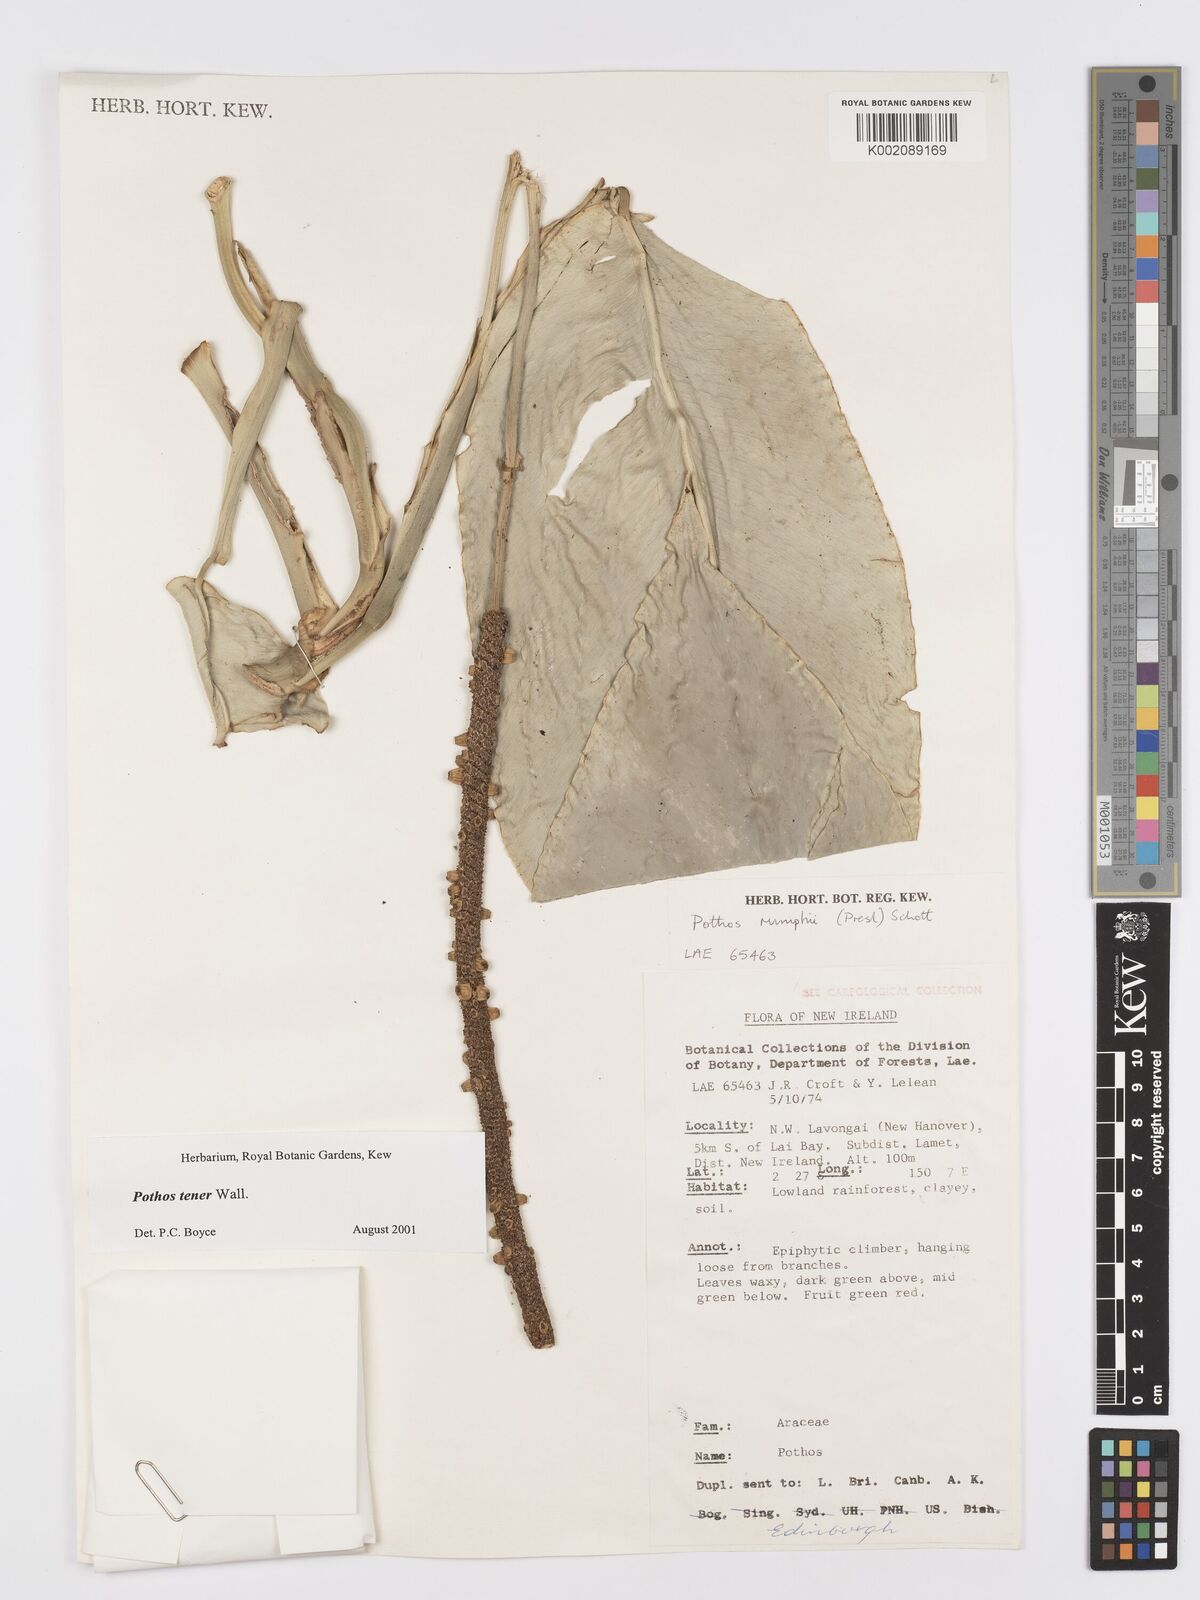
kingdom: Plantae
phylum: Tracheophyta
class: Liliopsida
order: Alismatales
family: Araceae
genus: Pothos
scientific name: Pothos tener
